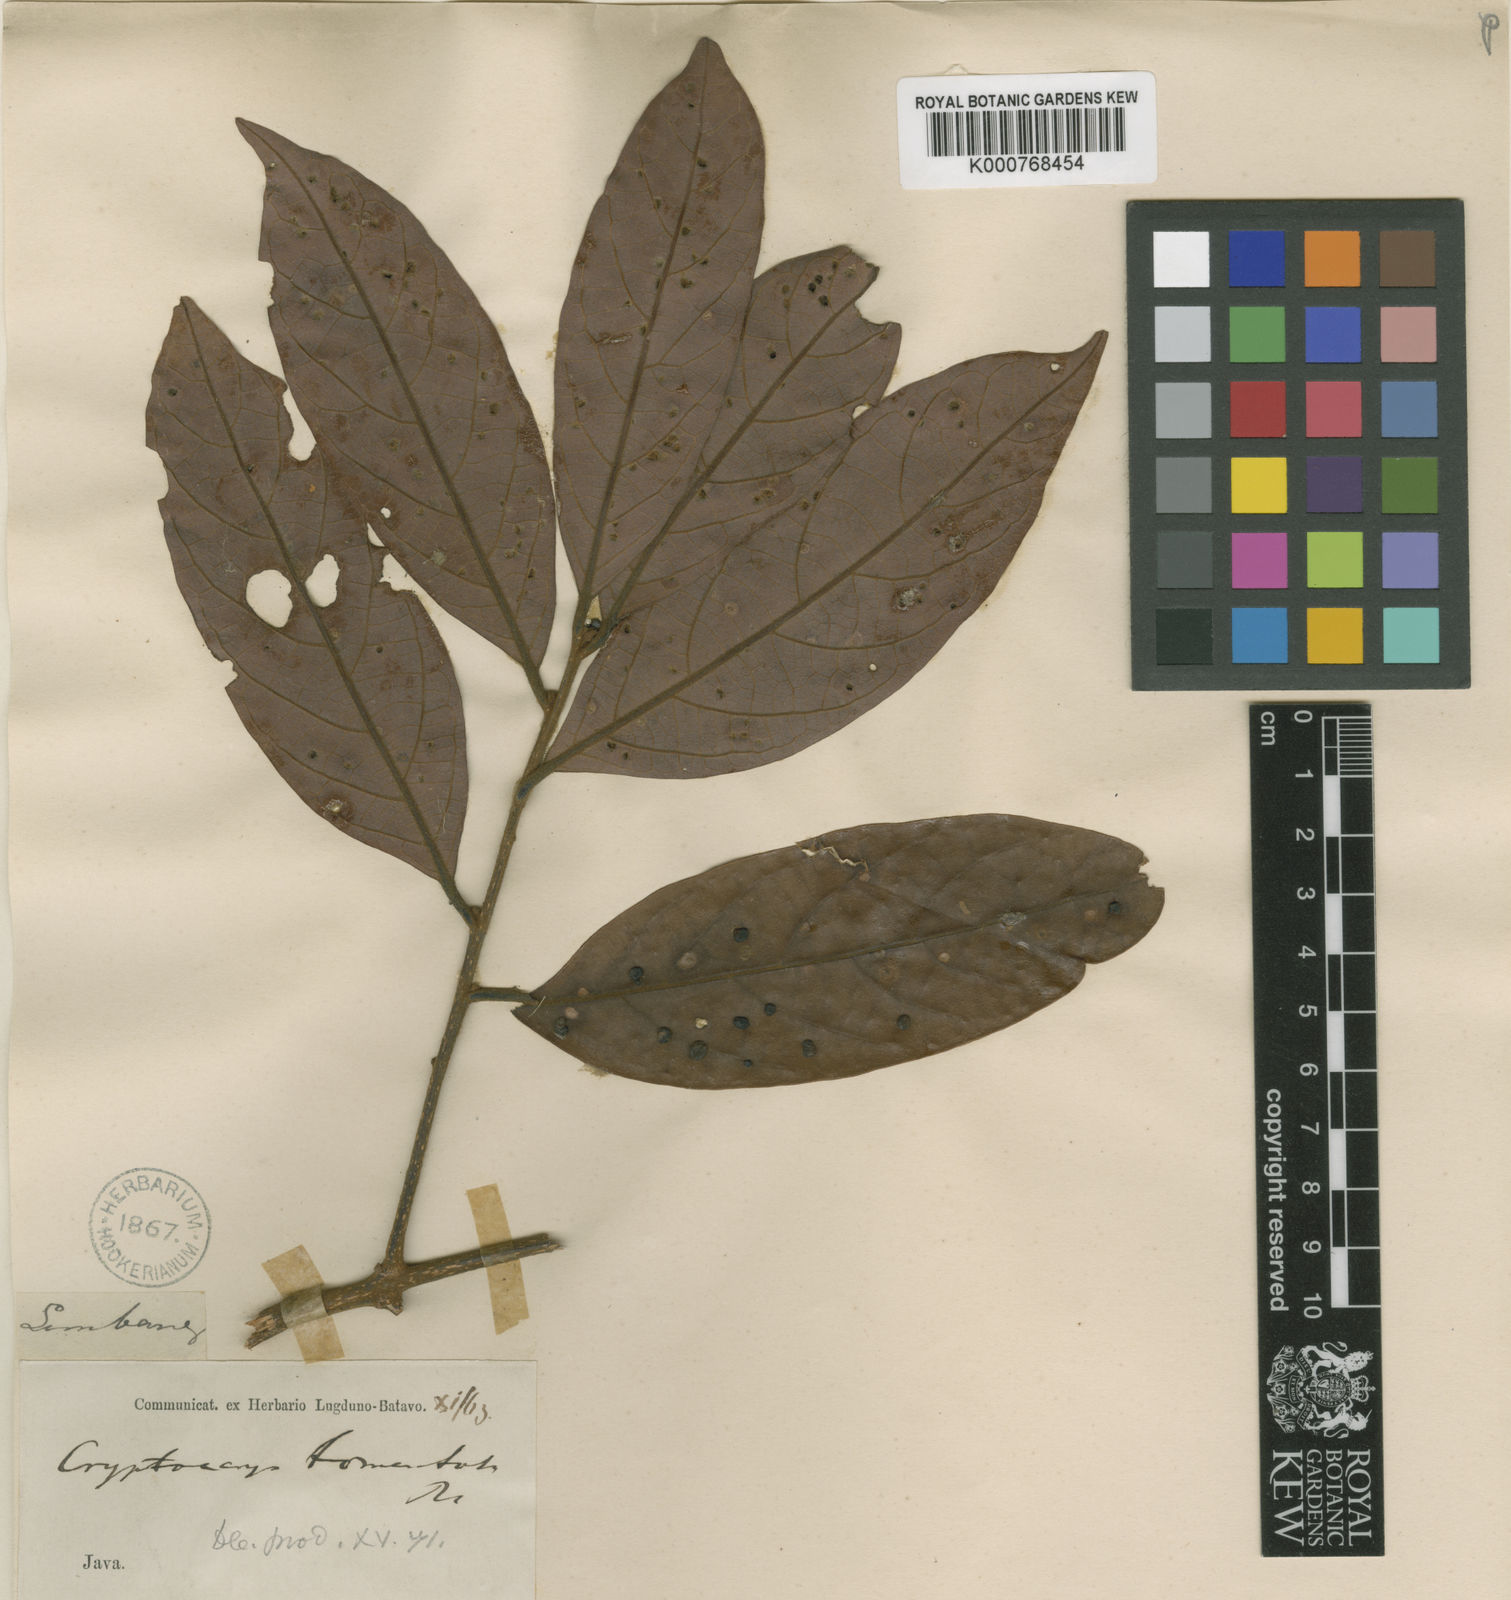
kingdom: Plantae
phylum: Tracheophyta
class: Magnoliopsida
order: Laurales
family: Lauraceae
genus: Cryptocarya
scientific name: Cryptocarya ferrea
